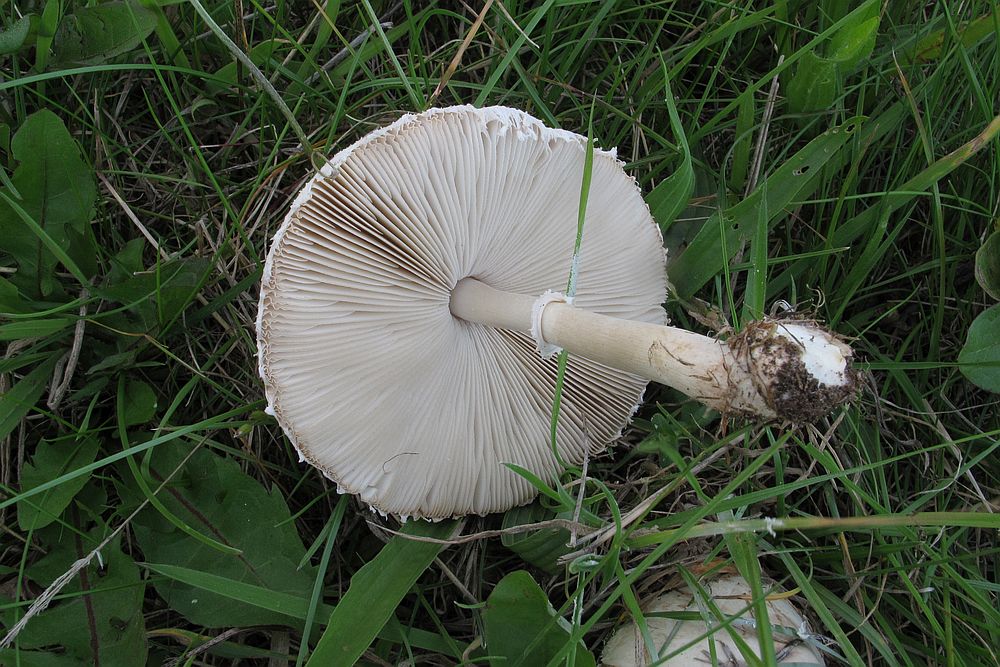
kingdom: Fungi
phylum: Basidiomycota
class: Agaricomycetes
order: Agaricales
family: Agaricaceae
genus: Macrolepiota
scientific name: Macrolepiota excoriata
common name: mark-kæmpeparasolhat
